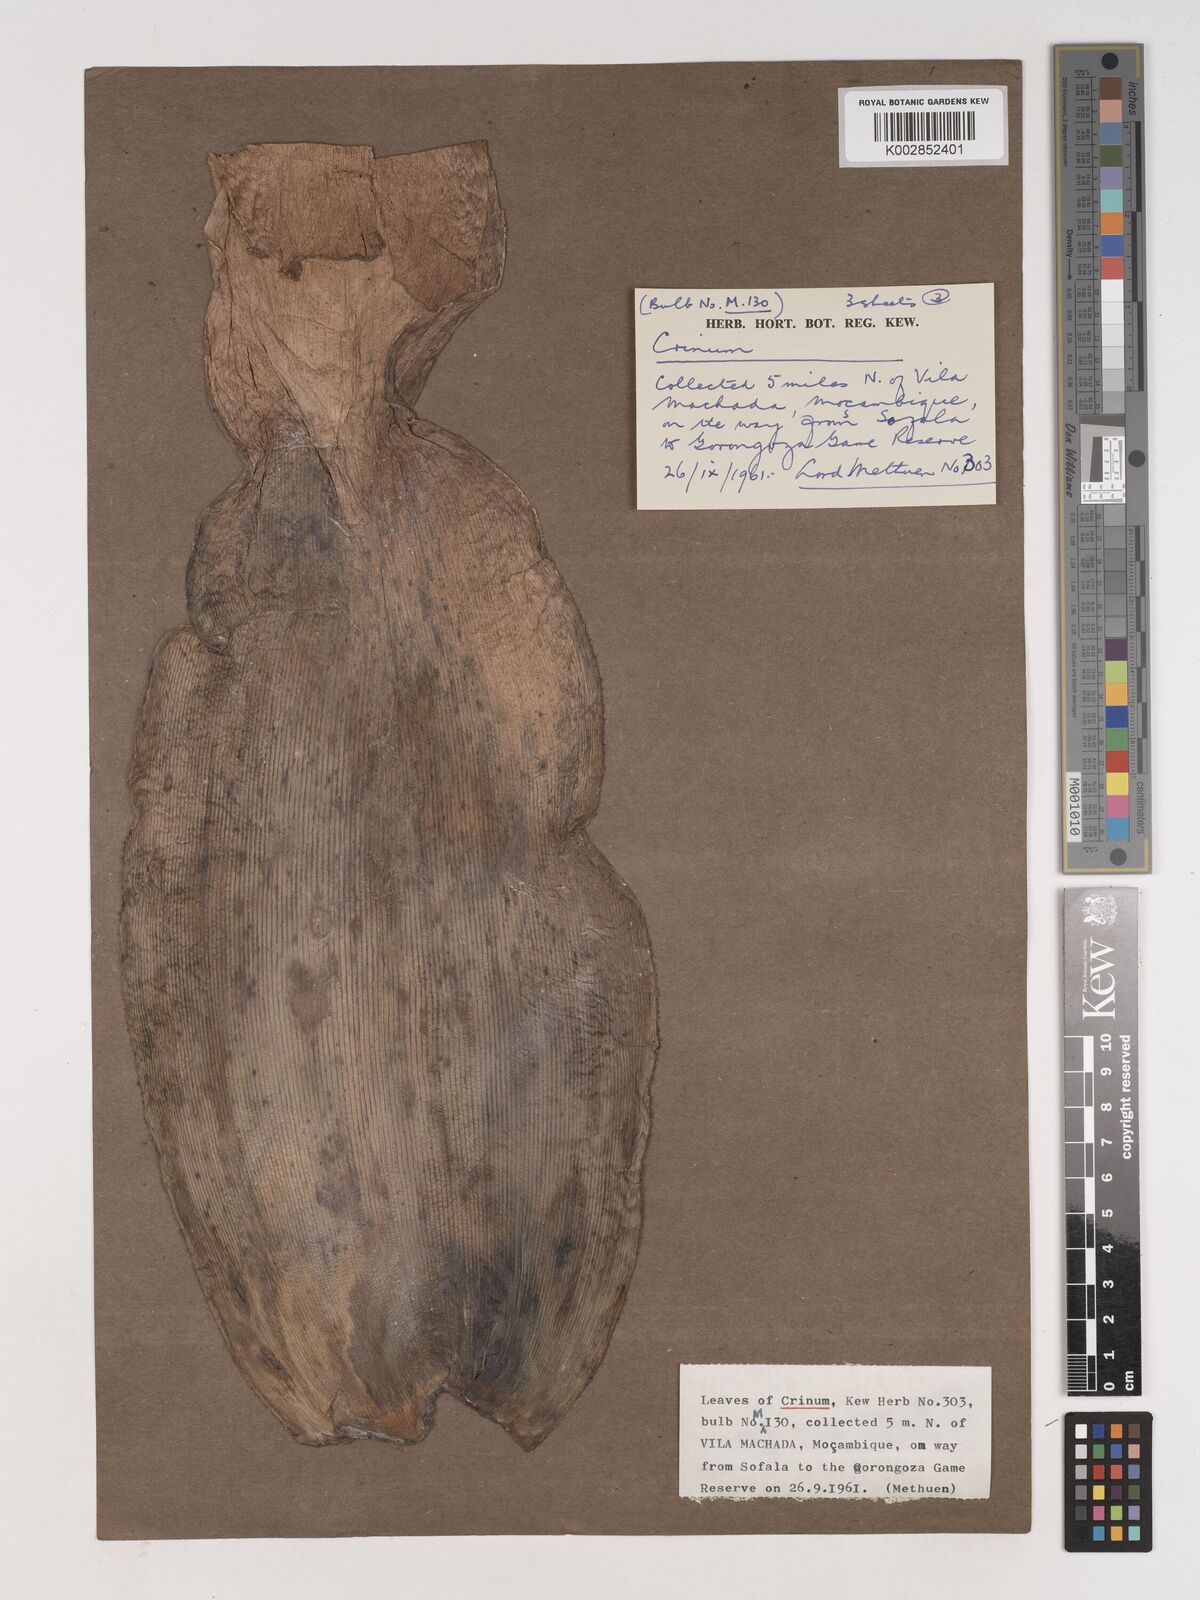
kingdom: Plantae
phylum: Tracheophyta
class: Liliopsida
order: Asparagales
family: Amaryllidaceae
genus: Crinum
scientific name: Crinum stuhlmannii
